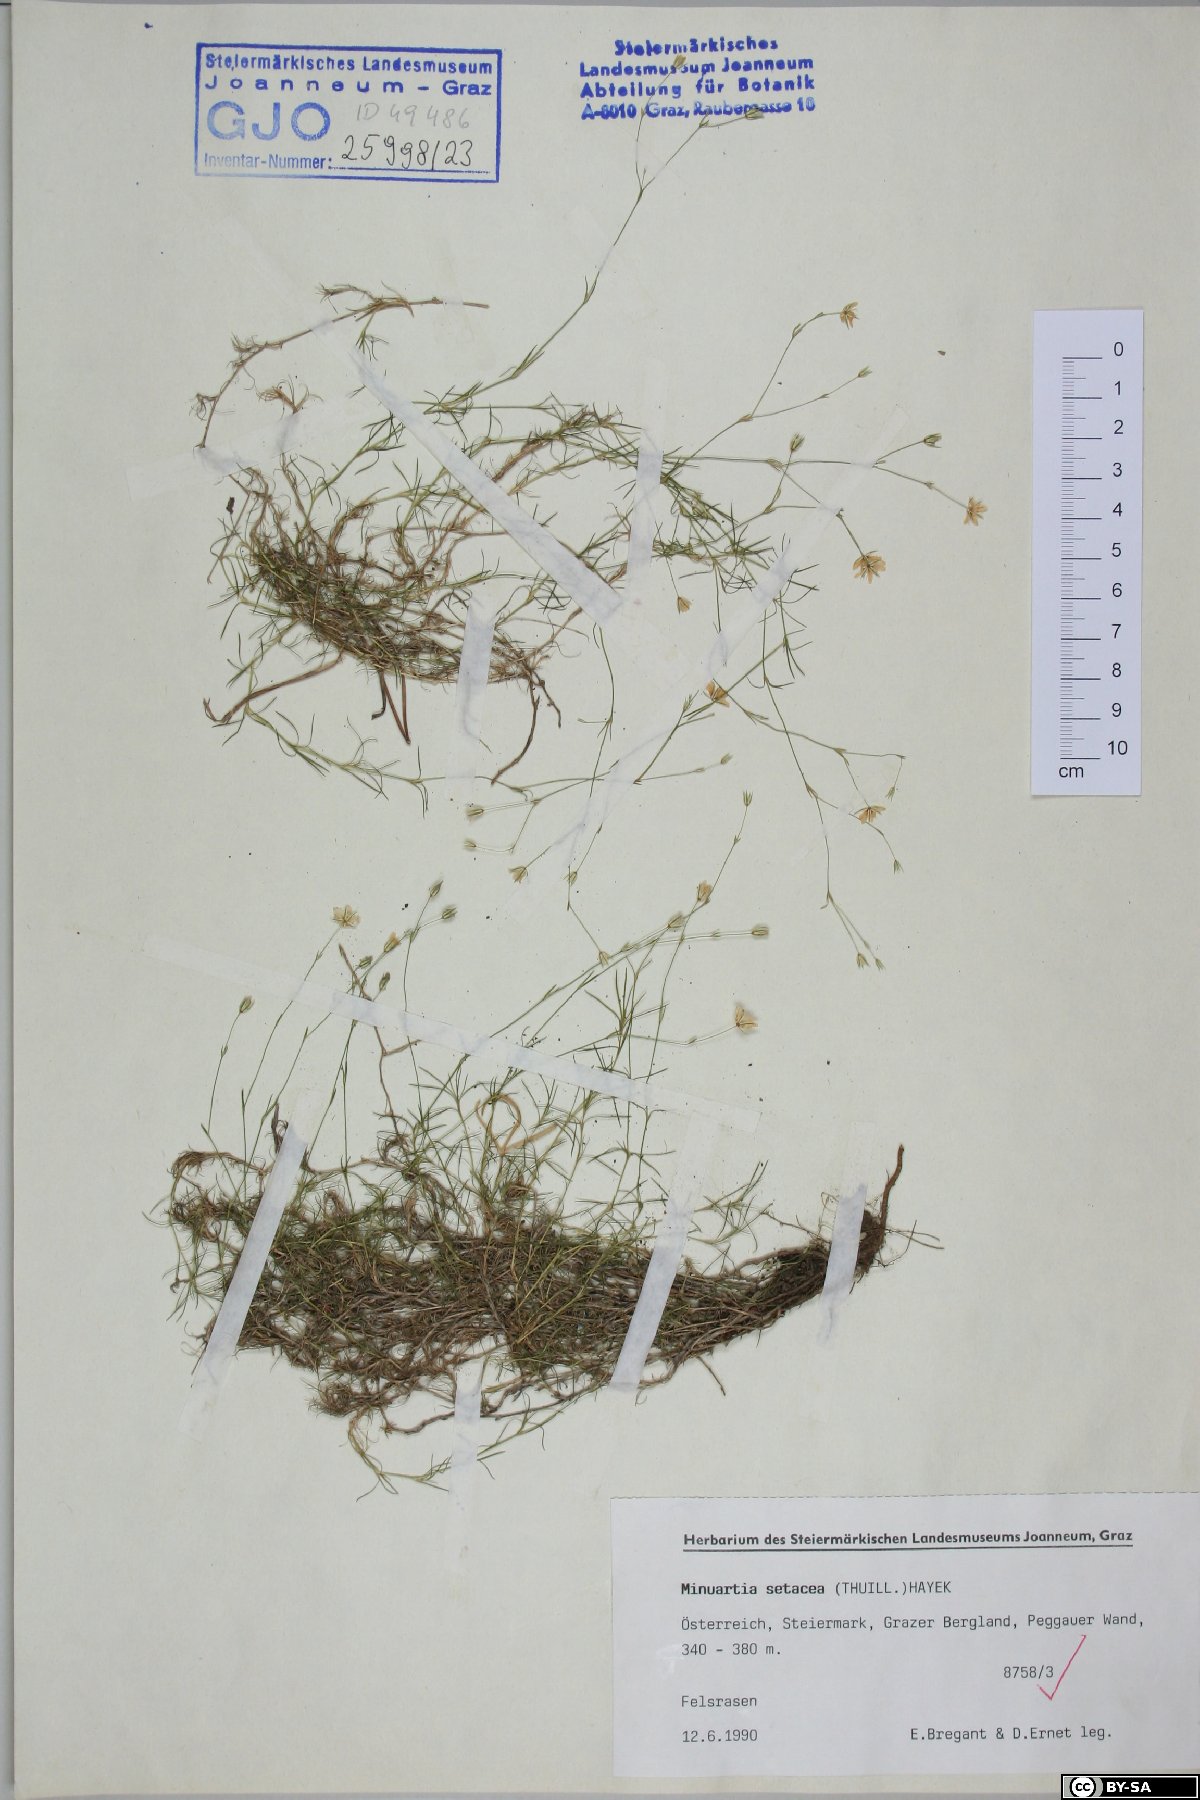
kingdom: Plantae
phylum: Tracheophyta
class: Magnoliopsida
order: Caryophyllales
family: Caryophyllaceae
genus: Minuartia
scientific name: Minuartia setacea
